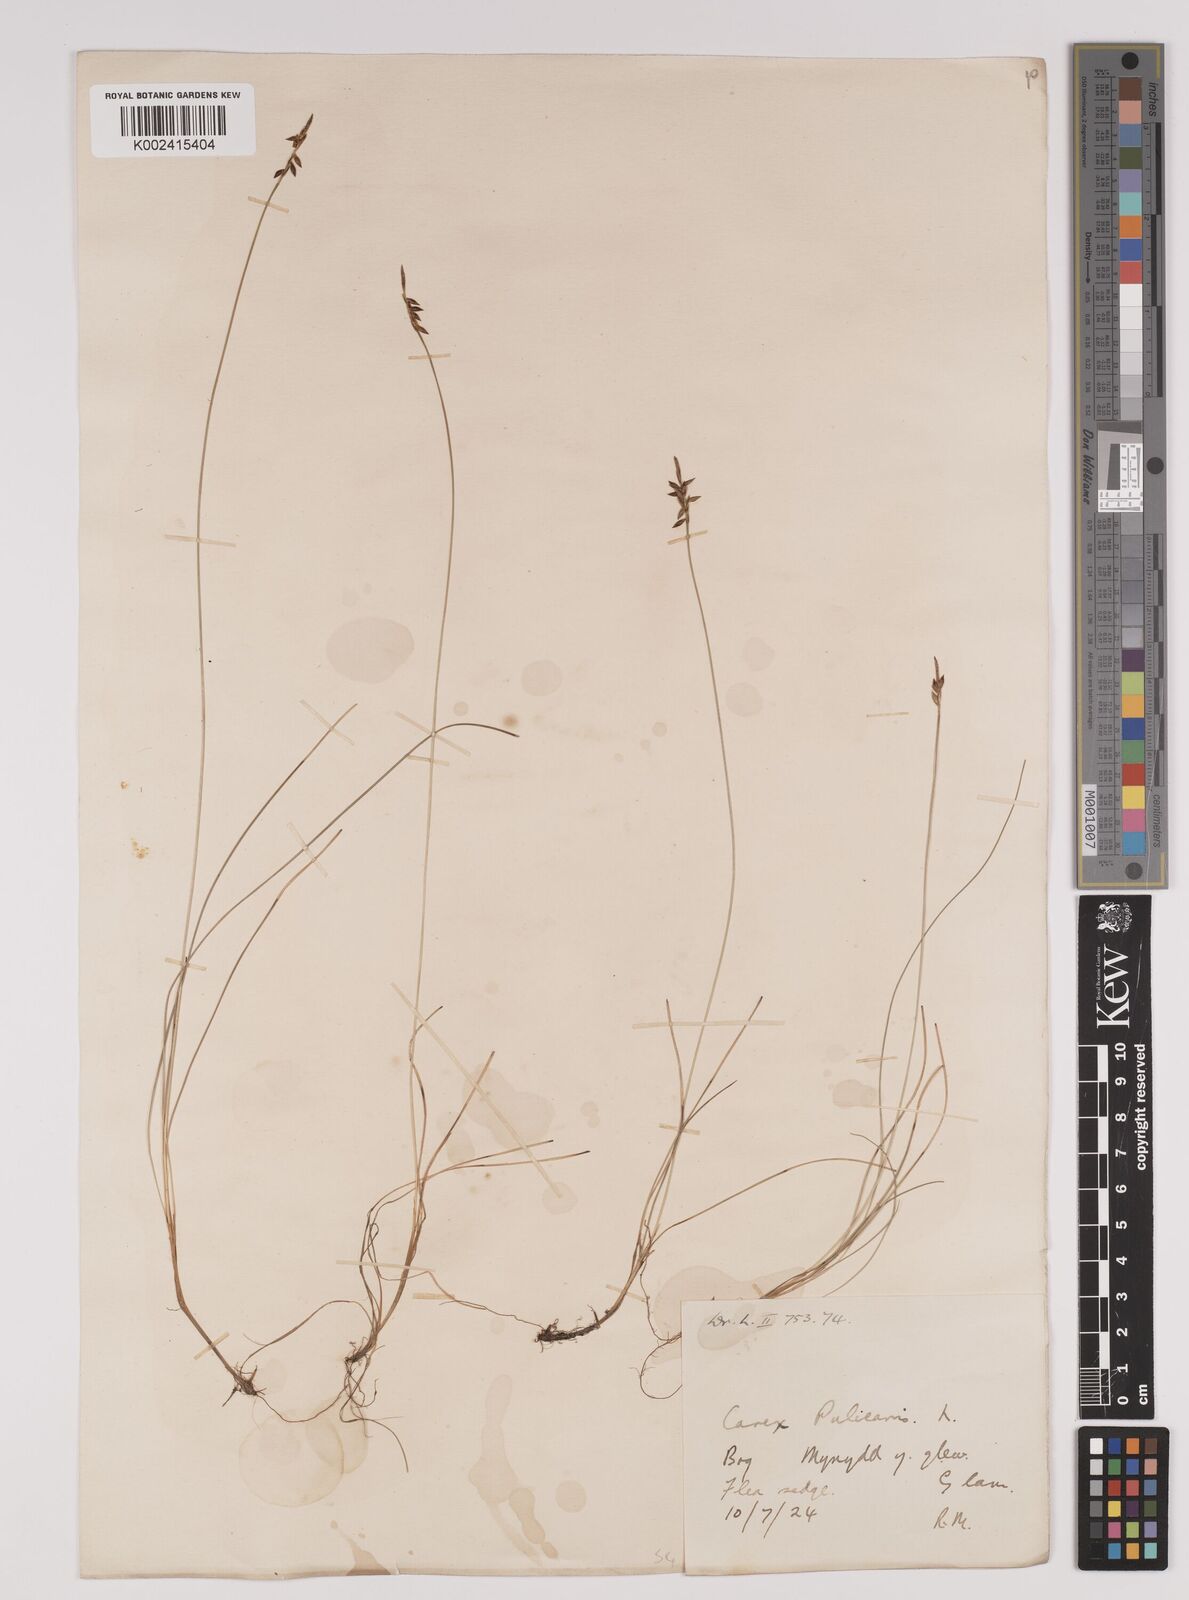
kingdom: Plantae
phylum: Tracheophyta
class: Liliopsida
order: Poales
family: Cyperaceae
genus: Carex
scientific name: Carex pulicaris
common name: Flea sedge
